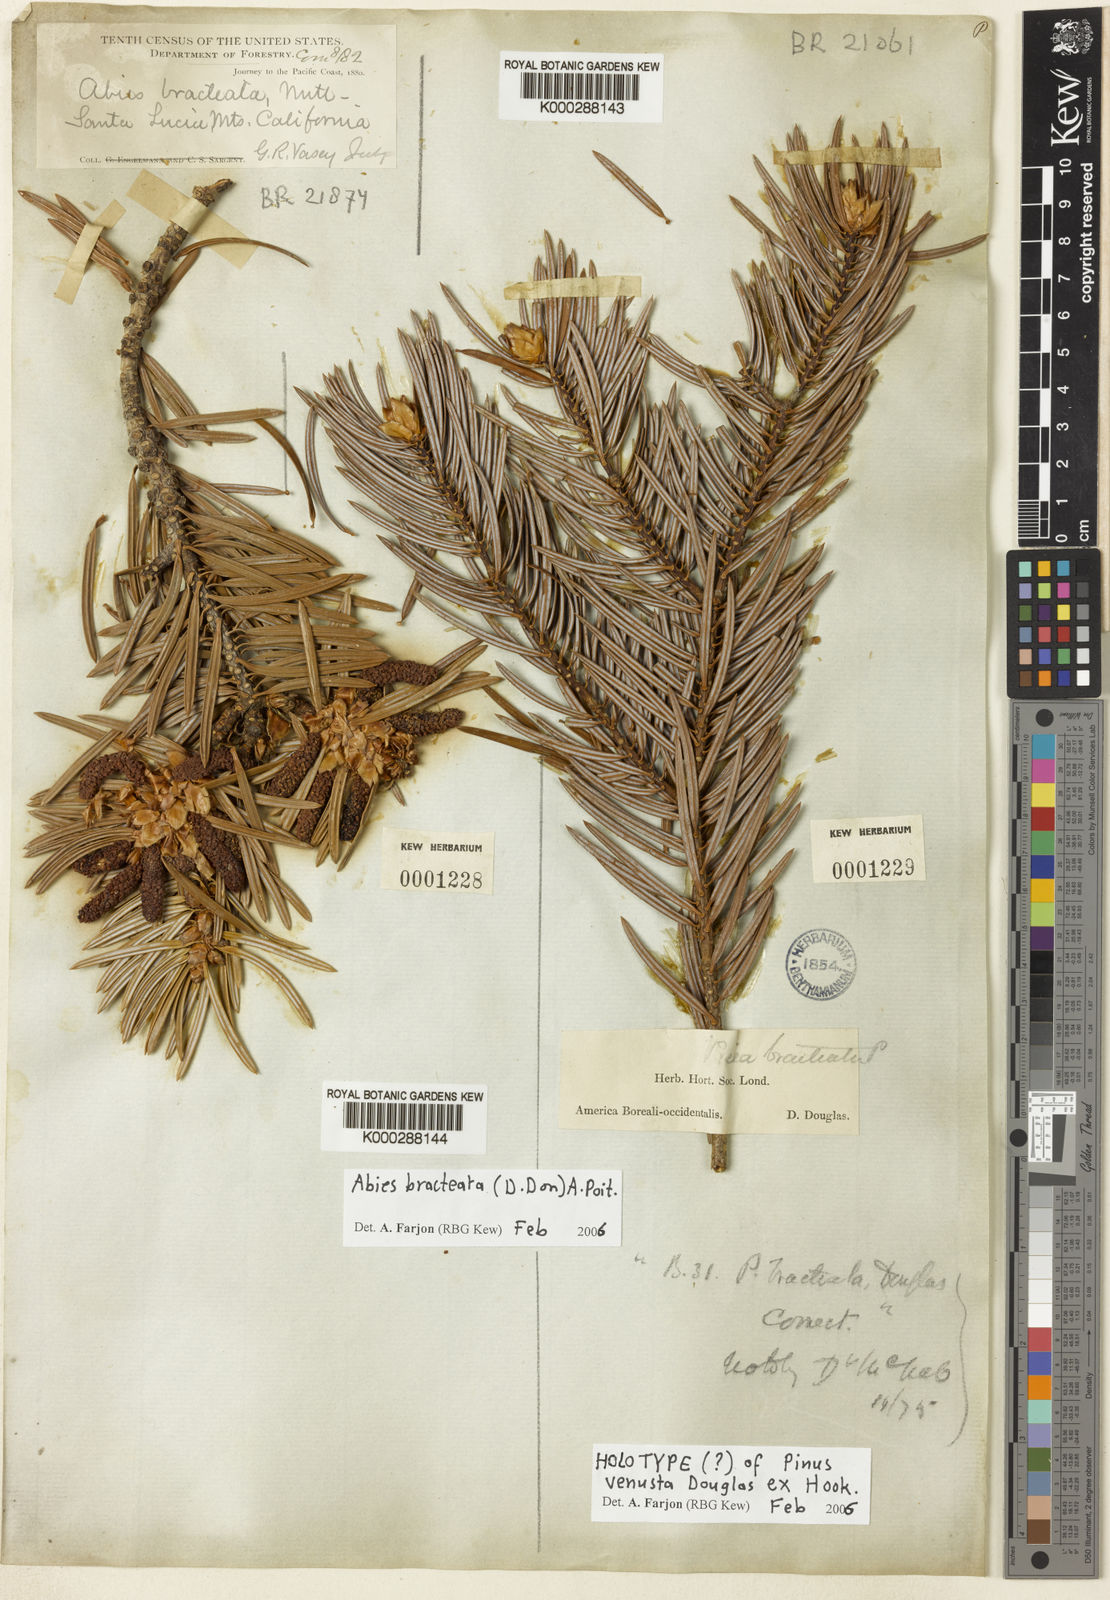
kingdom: Plantae
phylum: Tracheophyta
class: Pinopsida
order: Pinales
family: Pinaceae
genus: Abies
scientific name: Abies bracteata
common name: Bristlecone fir
